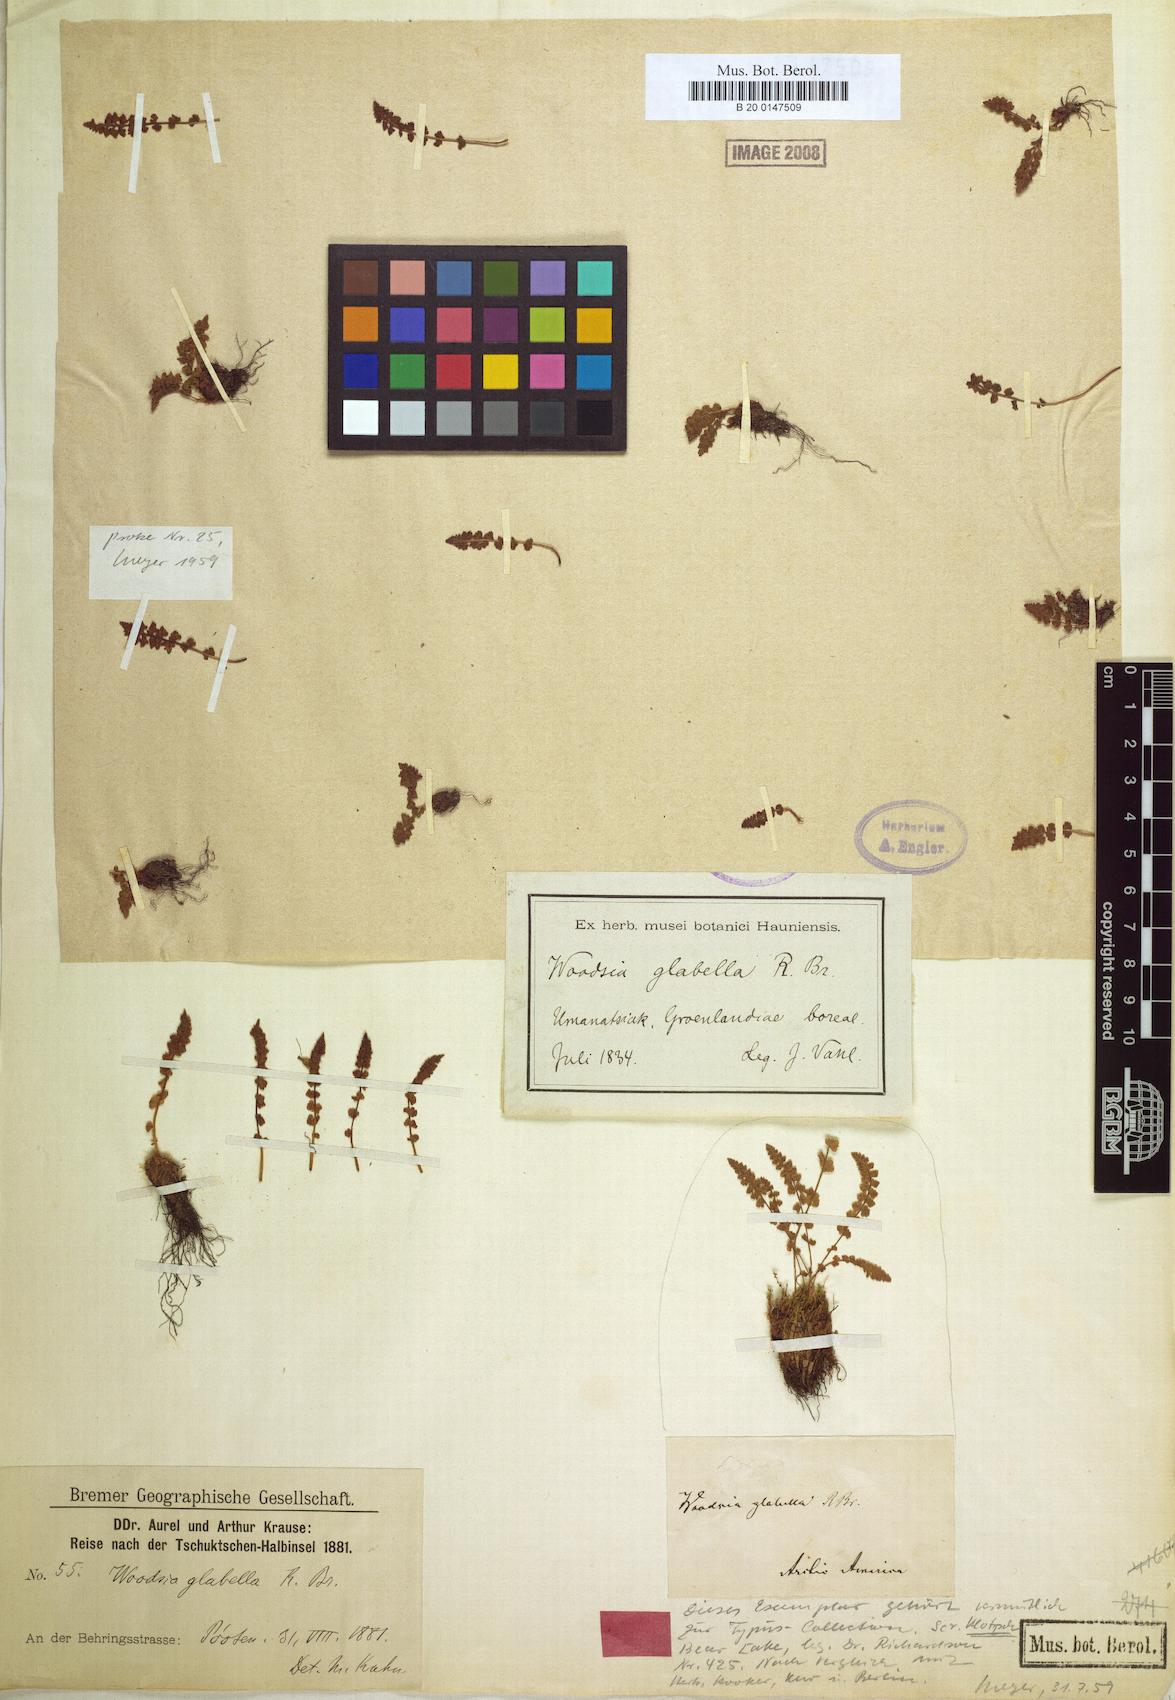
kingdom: Plantae
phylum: Tracheophyta
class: Polypodiopsida
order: Polypodiales
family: Woodsiaceae
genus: Woodsia
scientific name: Woodsia glabella
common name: Smooth woodsia
